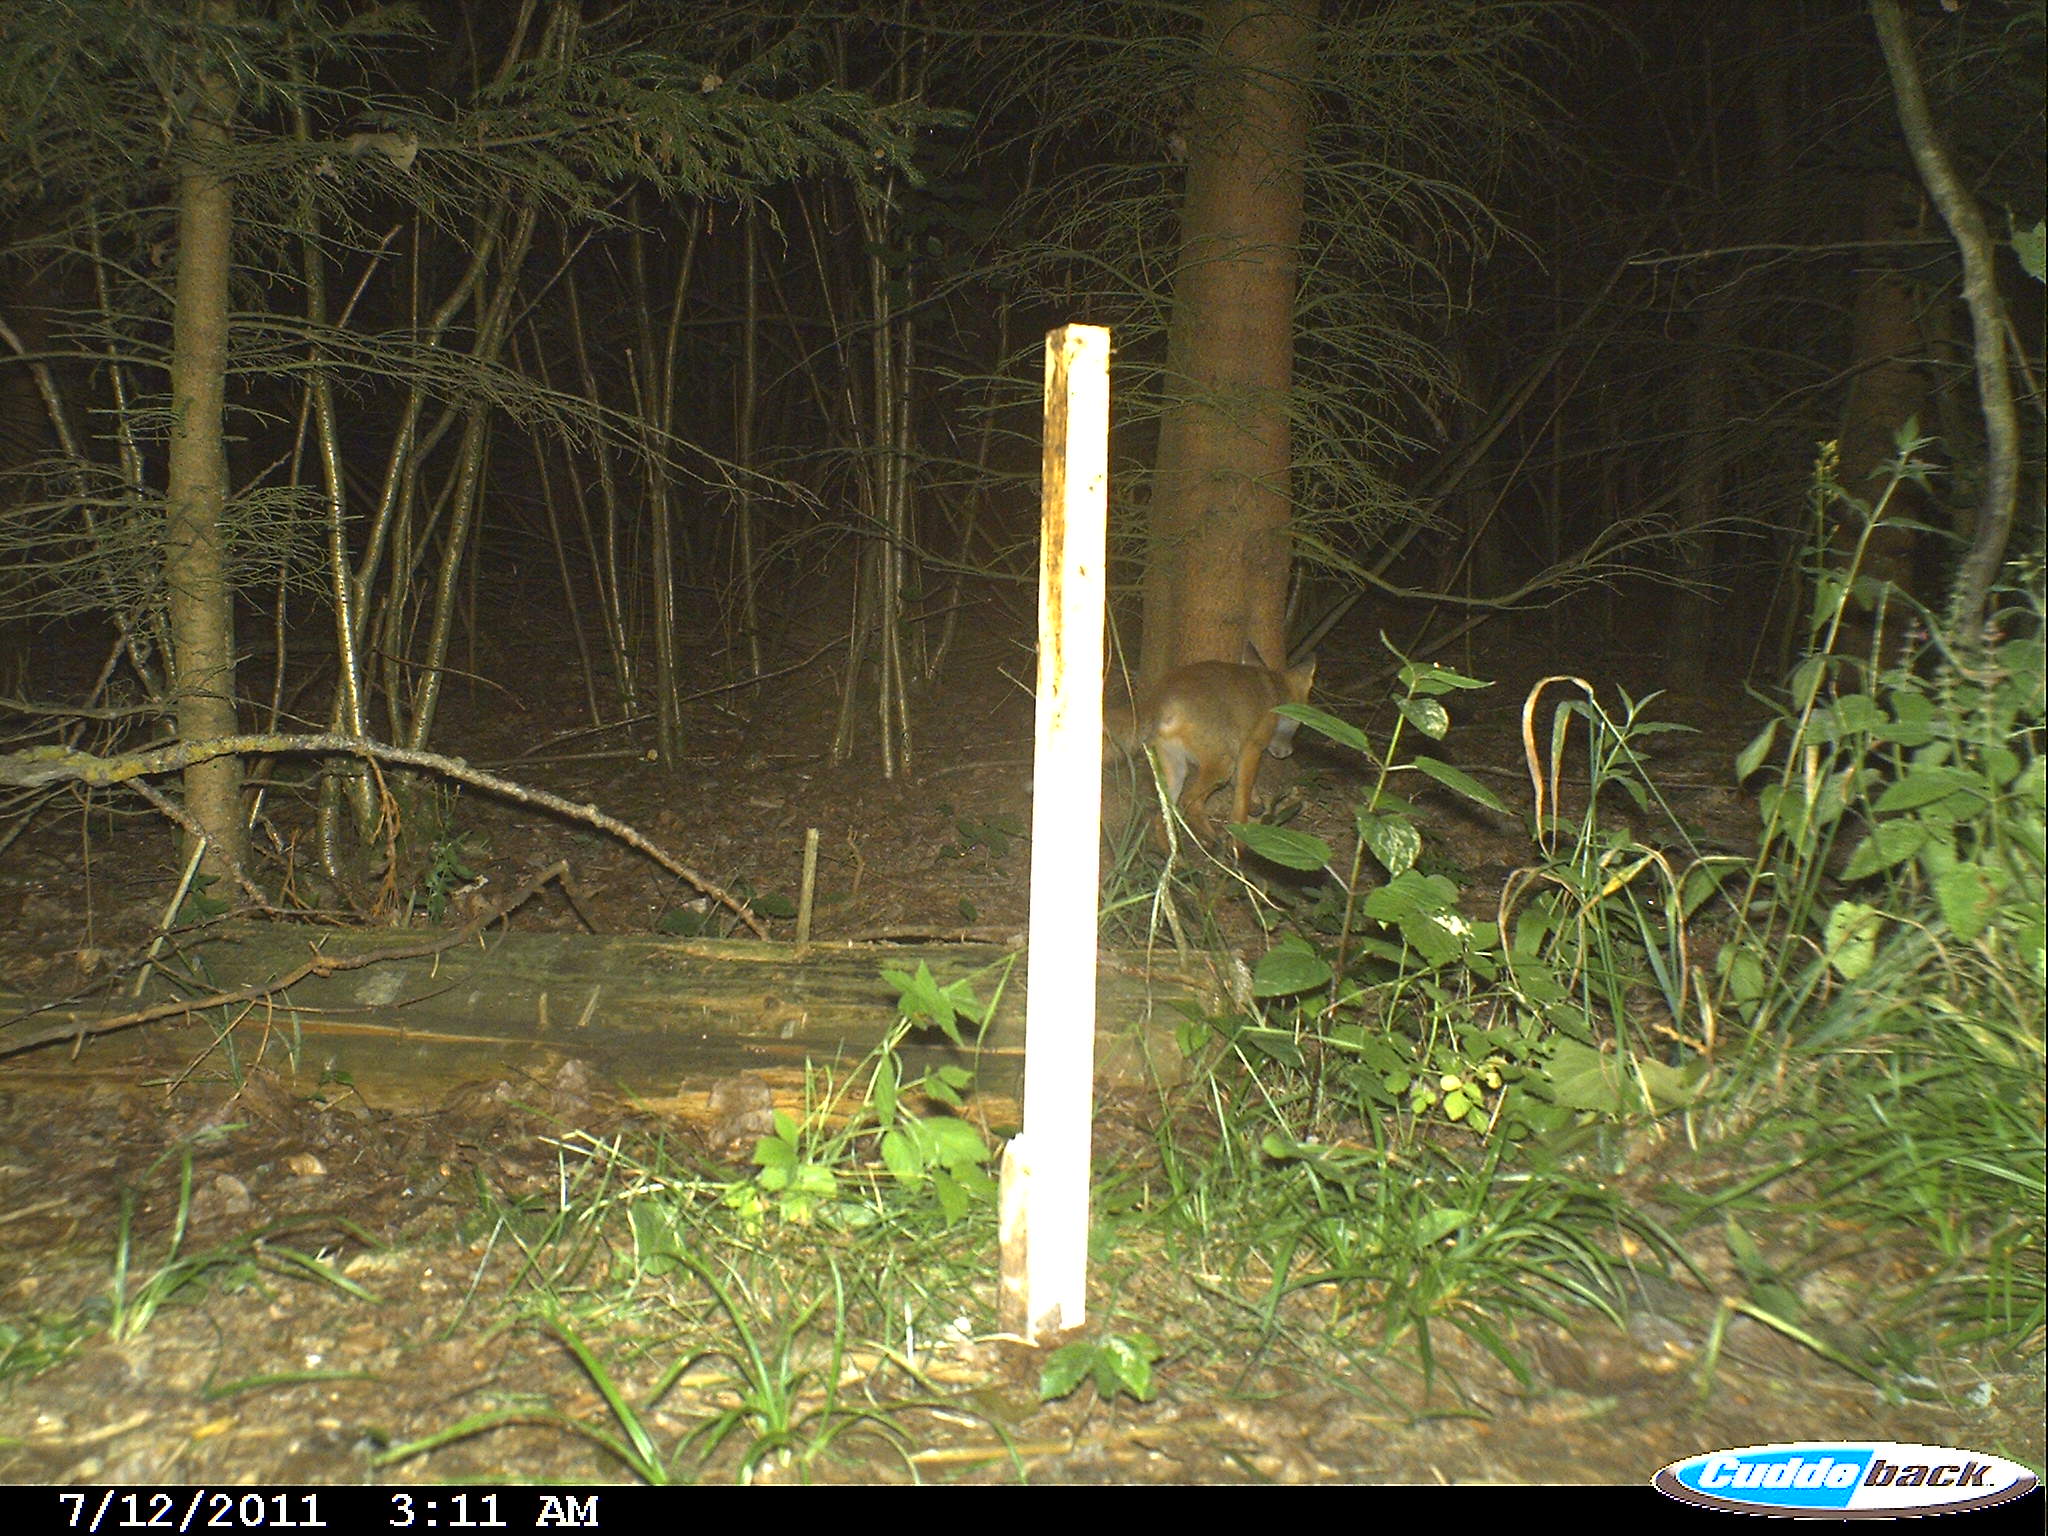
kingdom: Animalia
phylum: Chordata
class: Mammalia
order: Carnivora
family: Canidae
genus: Vulpes
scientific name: Vulpes vulpes
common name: Red fox
